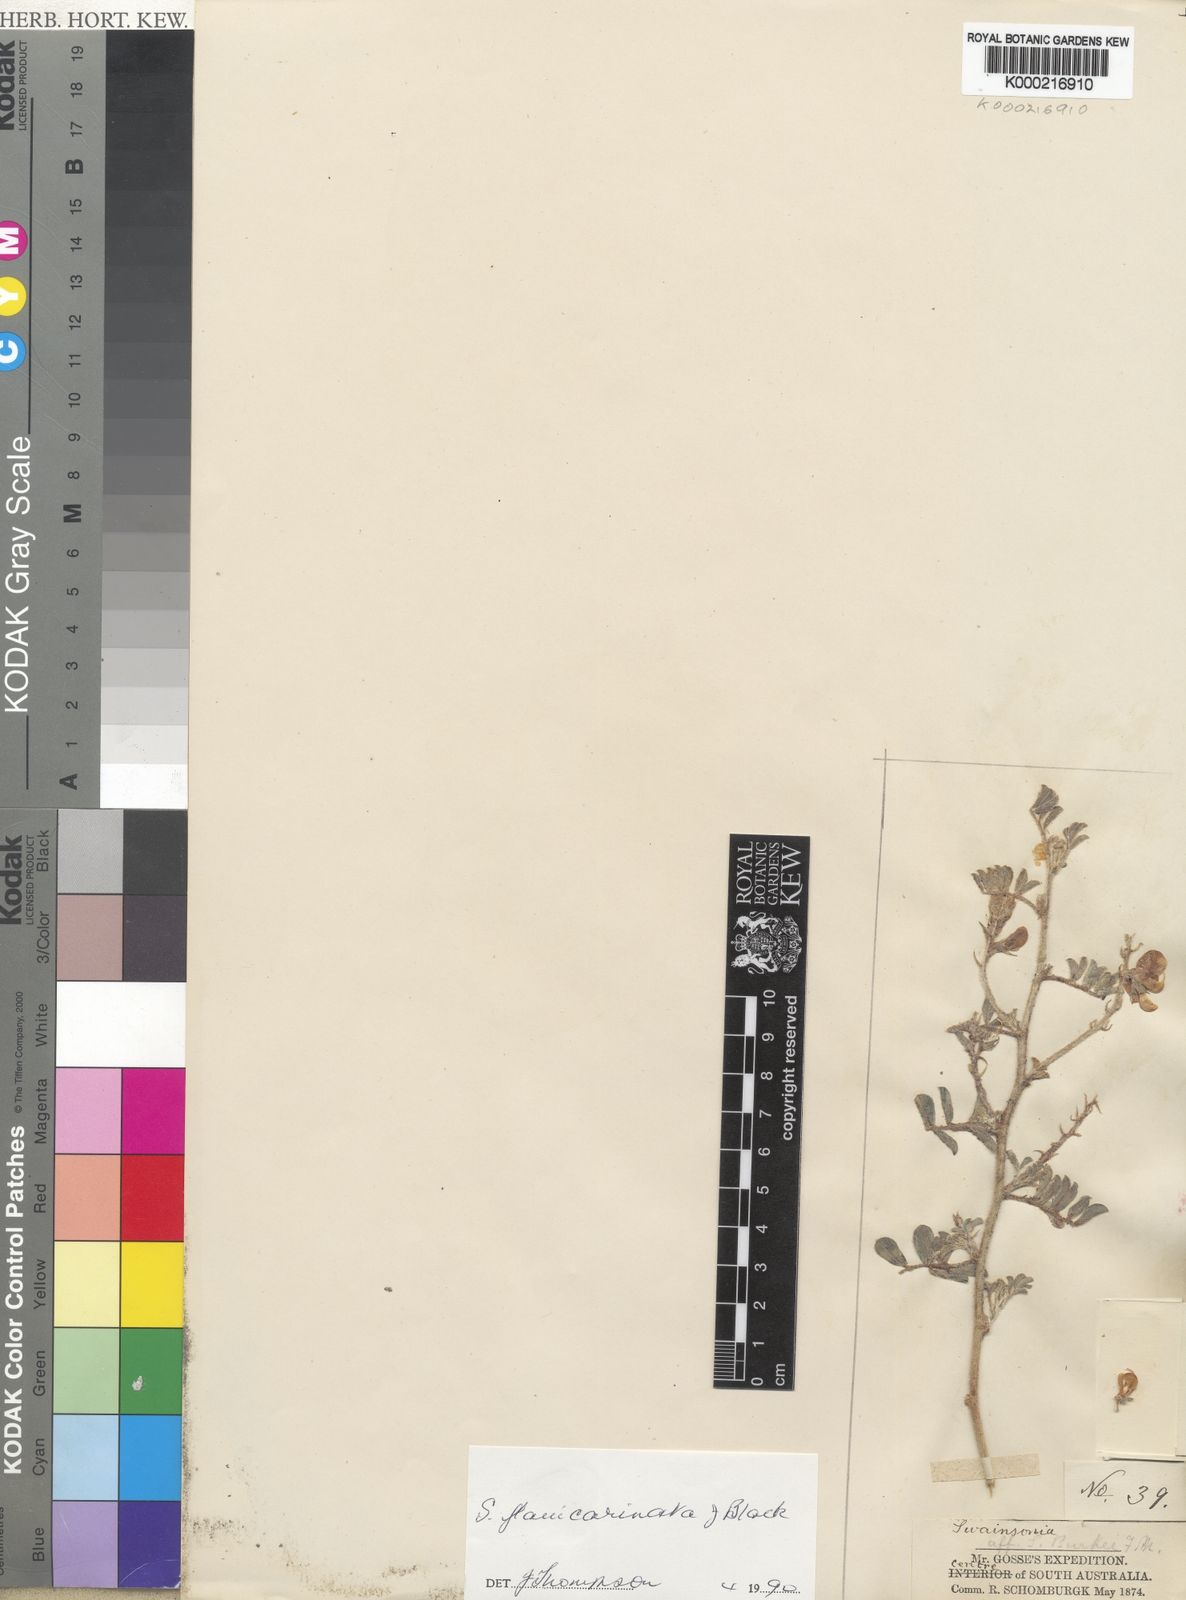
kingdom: Plantae
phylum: Tracheophyta
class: Magnoliopsida
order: Fabales
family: Fabaceae
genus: Swainsona
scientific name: Swainsona flavicarinata
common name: Yellow-keel swainsona
